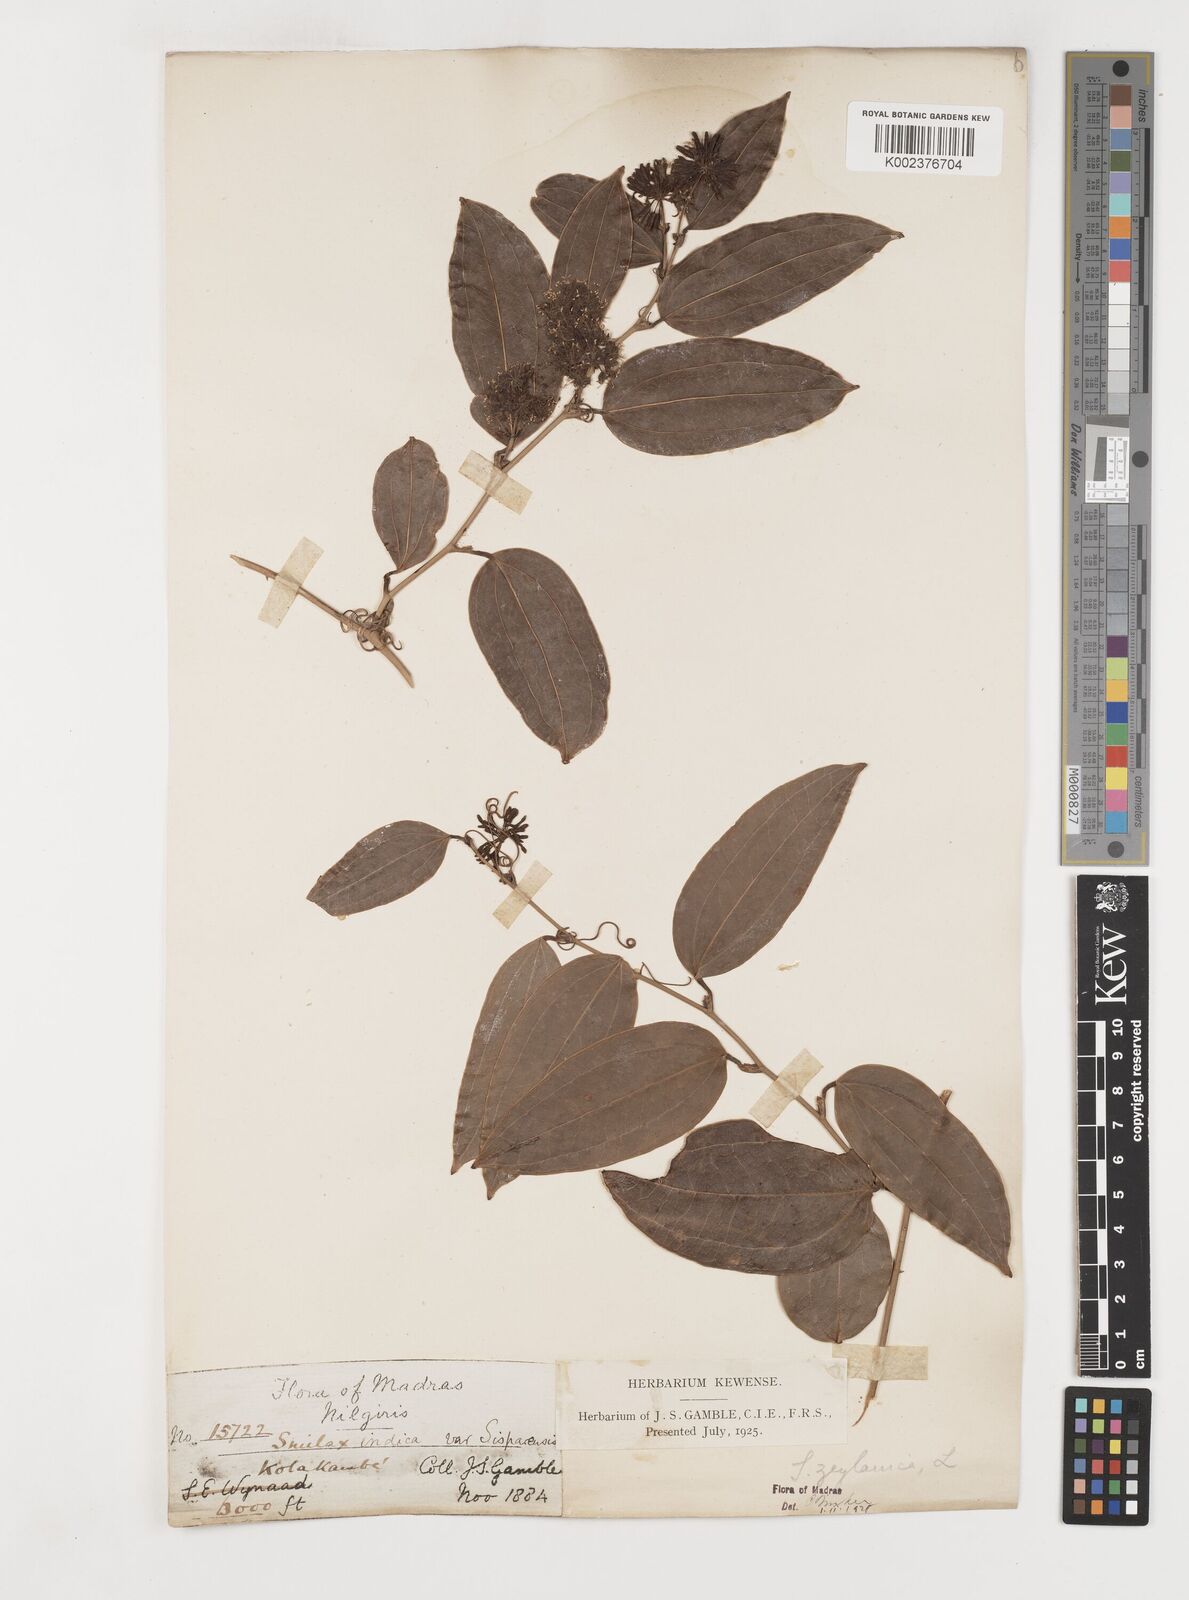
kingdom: Plantae
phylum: Tracheophyta
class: Liliopsida
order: Liliales
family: Smilacaceae
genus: Smilax
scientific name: Smilax zeylanica
